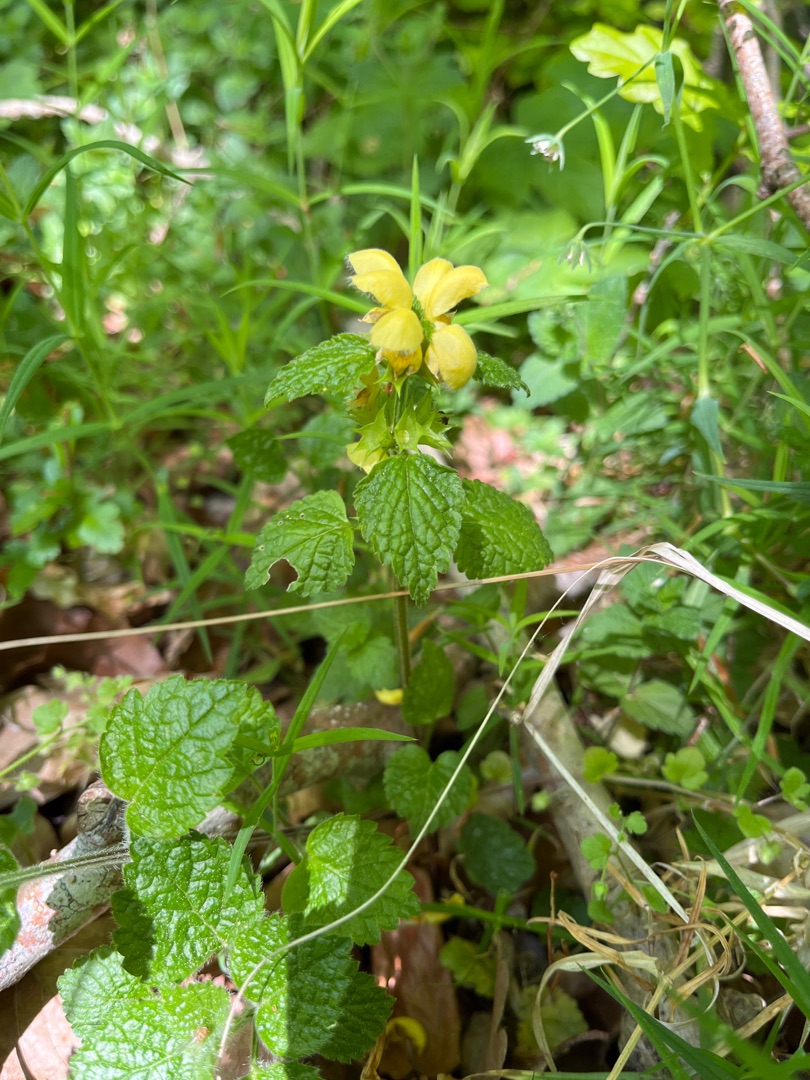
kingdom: Plantae
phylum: Tracheophyta
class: Magnoliopsida
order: Lamiales
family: Lamiaceae
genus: Lamium
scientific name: Lamium galeobdolon
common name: Almindelig guldnælde
